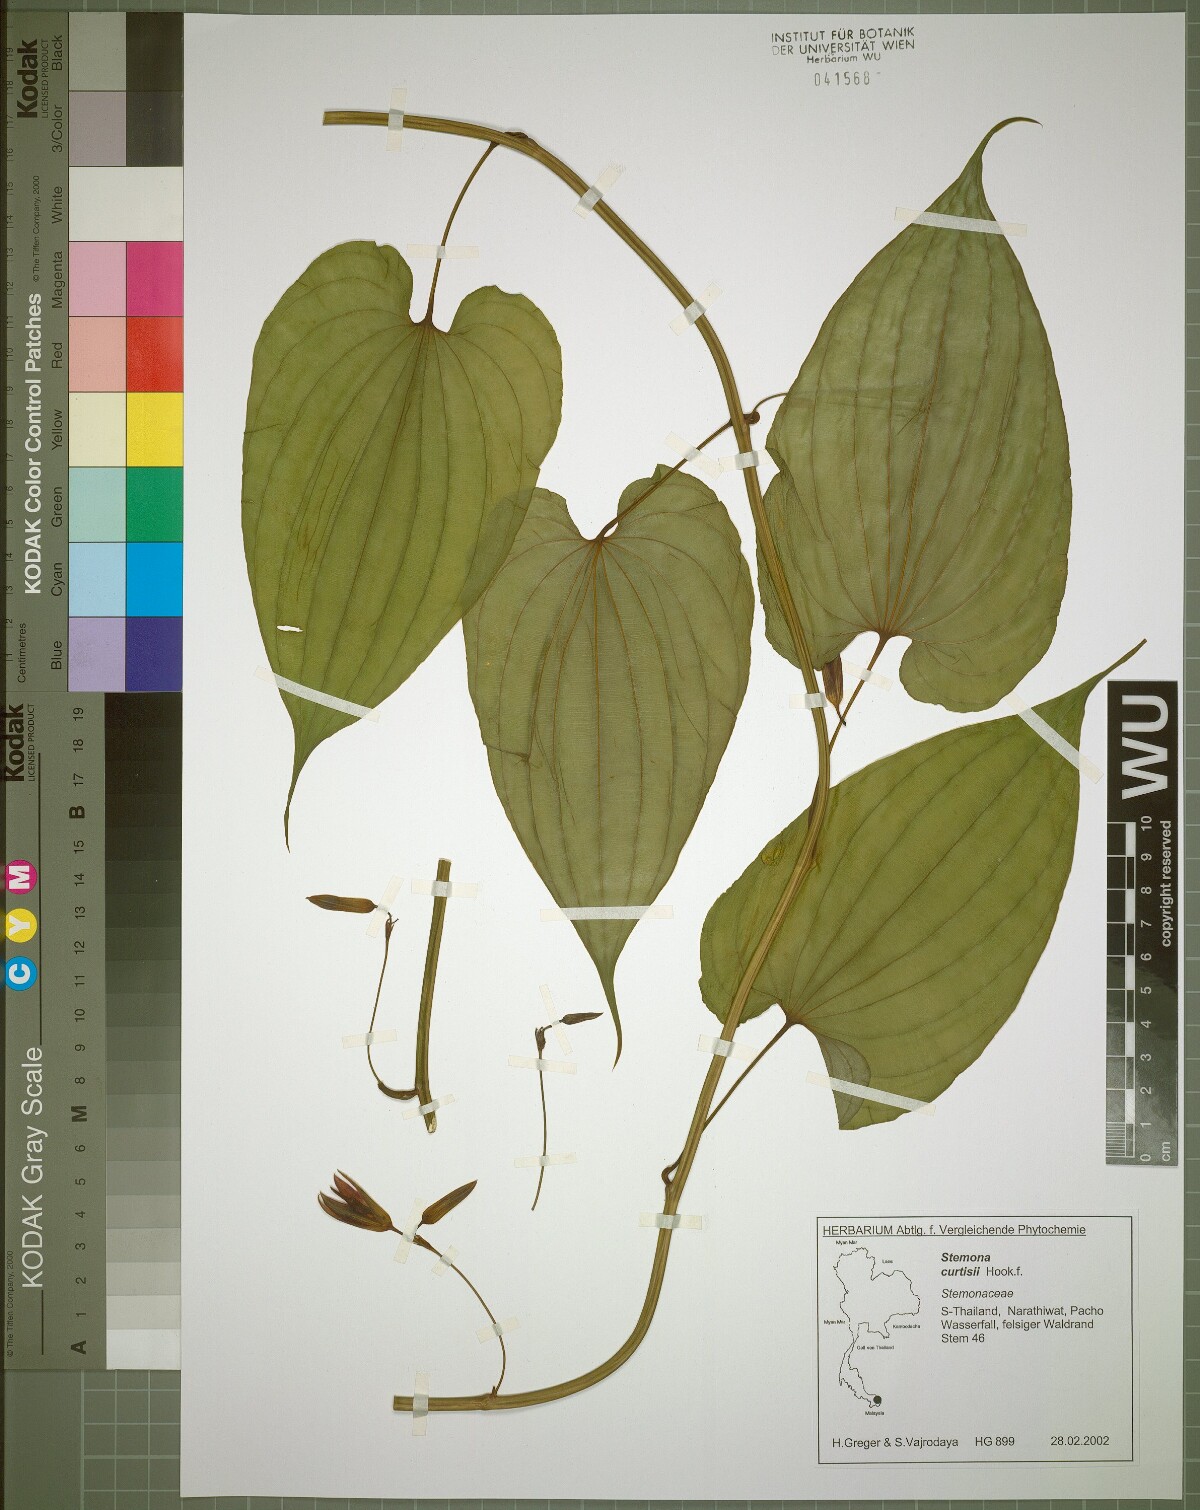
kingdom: Plantae
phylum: Tracheophyta
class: Liliopsida
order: Pandanales
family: Stemonaceae
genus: Stemona
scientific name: Stemona curtisii
